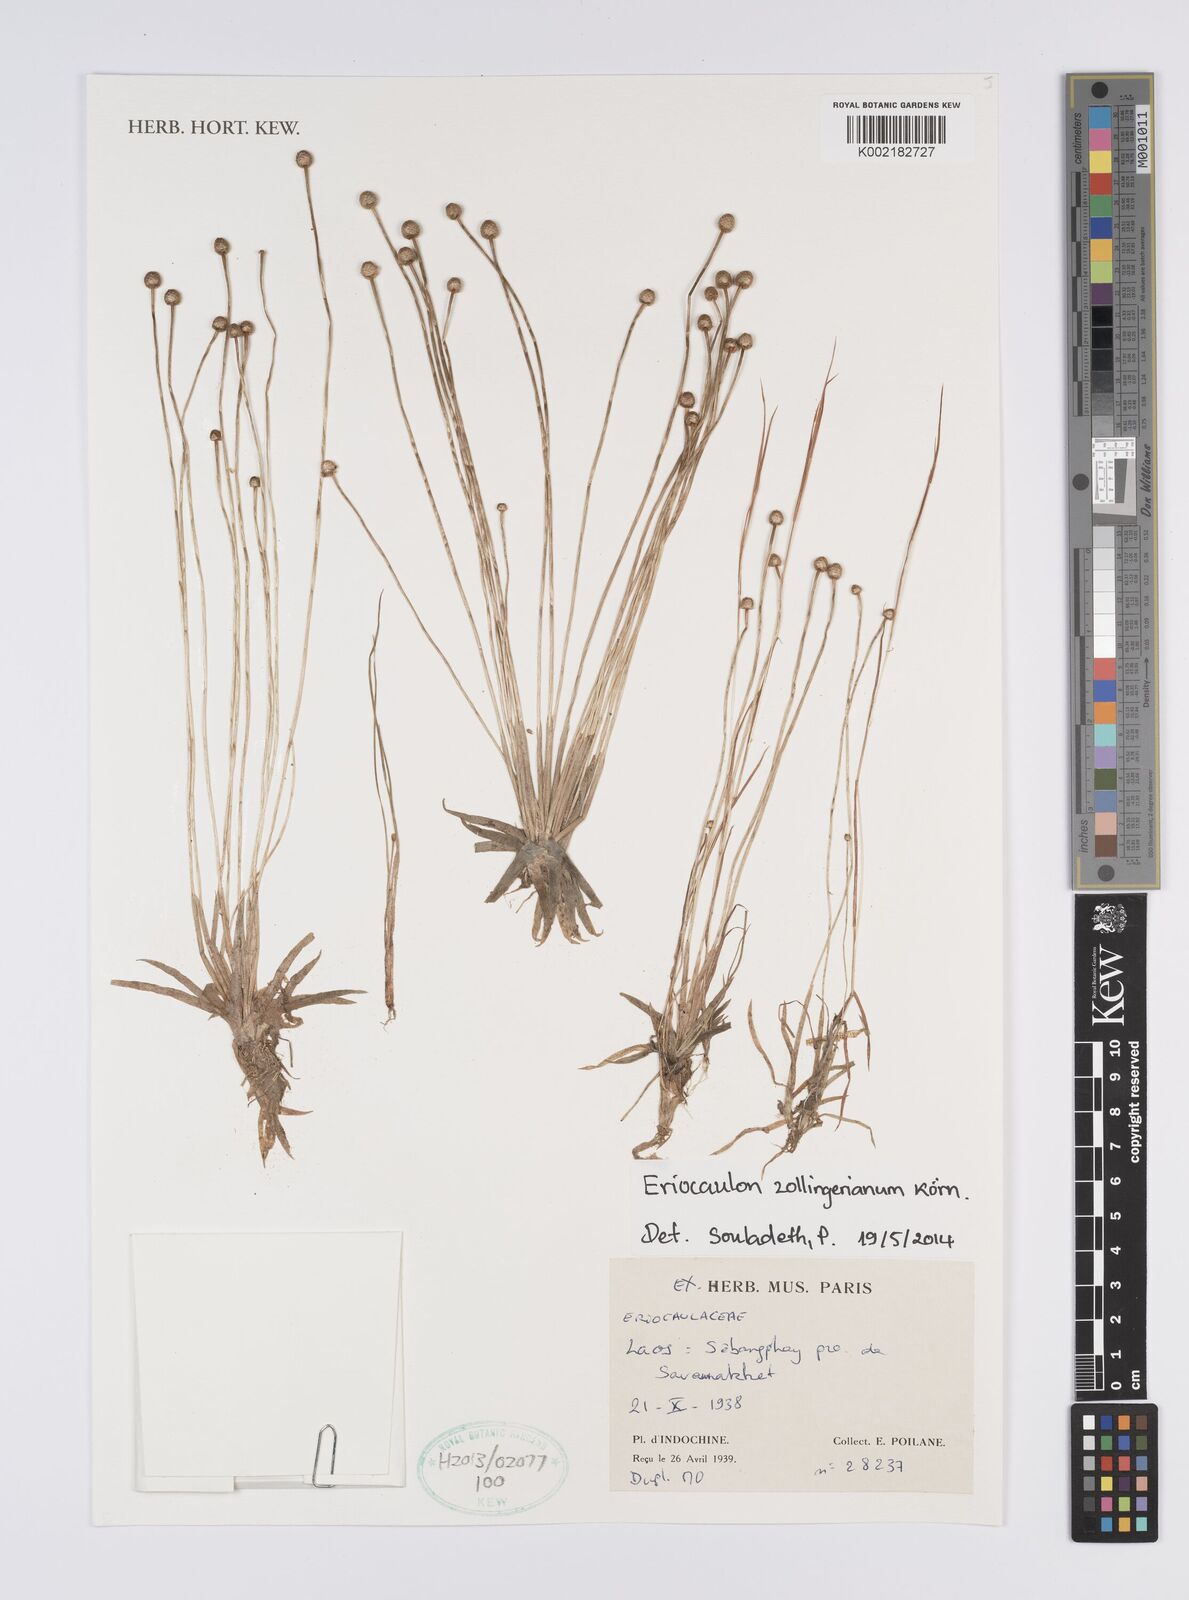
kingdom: Plantae
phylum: Tracheophyta
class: Liliopsida
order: Poales
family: Eriocaulaceae
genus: Eriocaulon
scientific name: Eriocaulon zollingerianum
